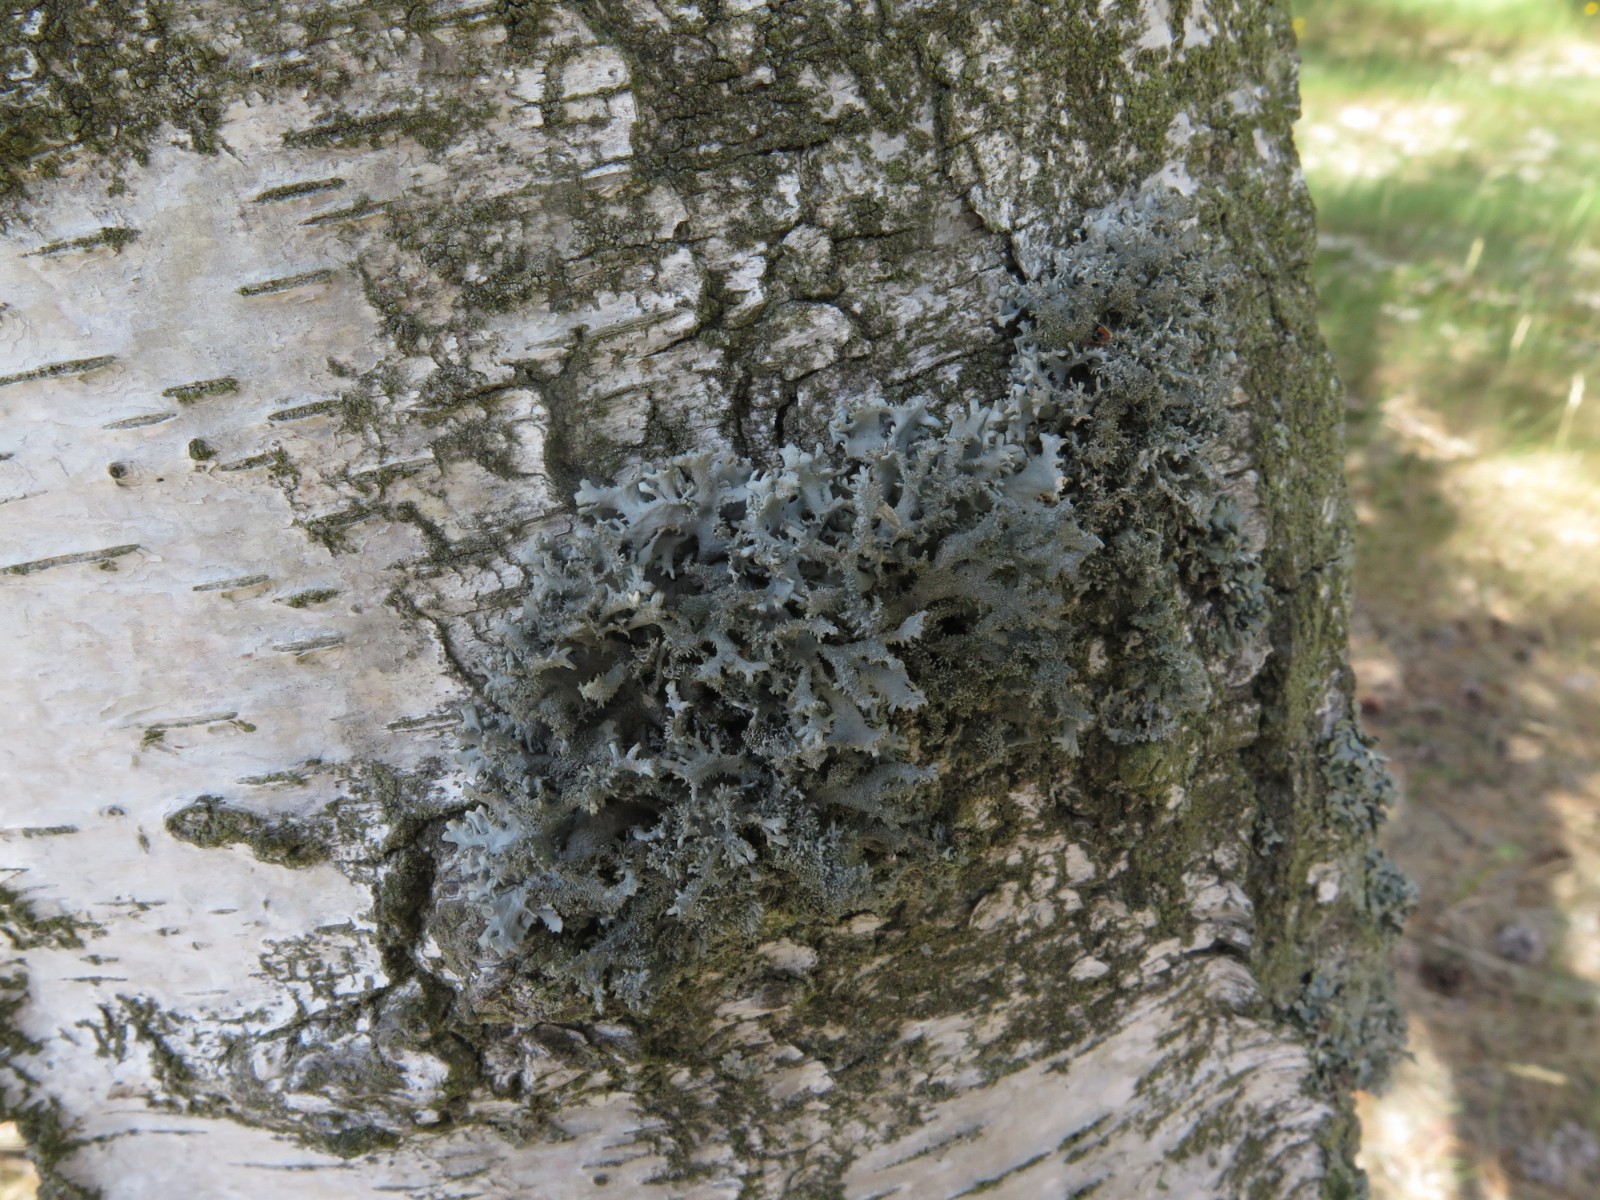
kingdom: Fungi
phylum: Ascomycota
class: Lecanoromycetes
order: Lecanorales
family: Parmeliaceae
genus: Pseudevernia
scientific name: Pseudevernia furfuracea
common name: grå fyrrelav
